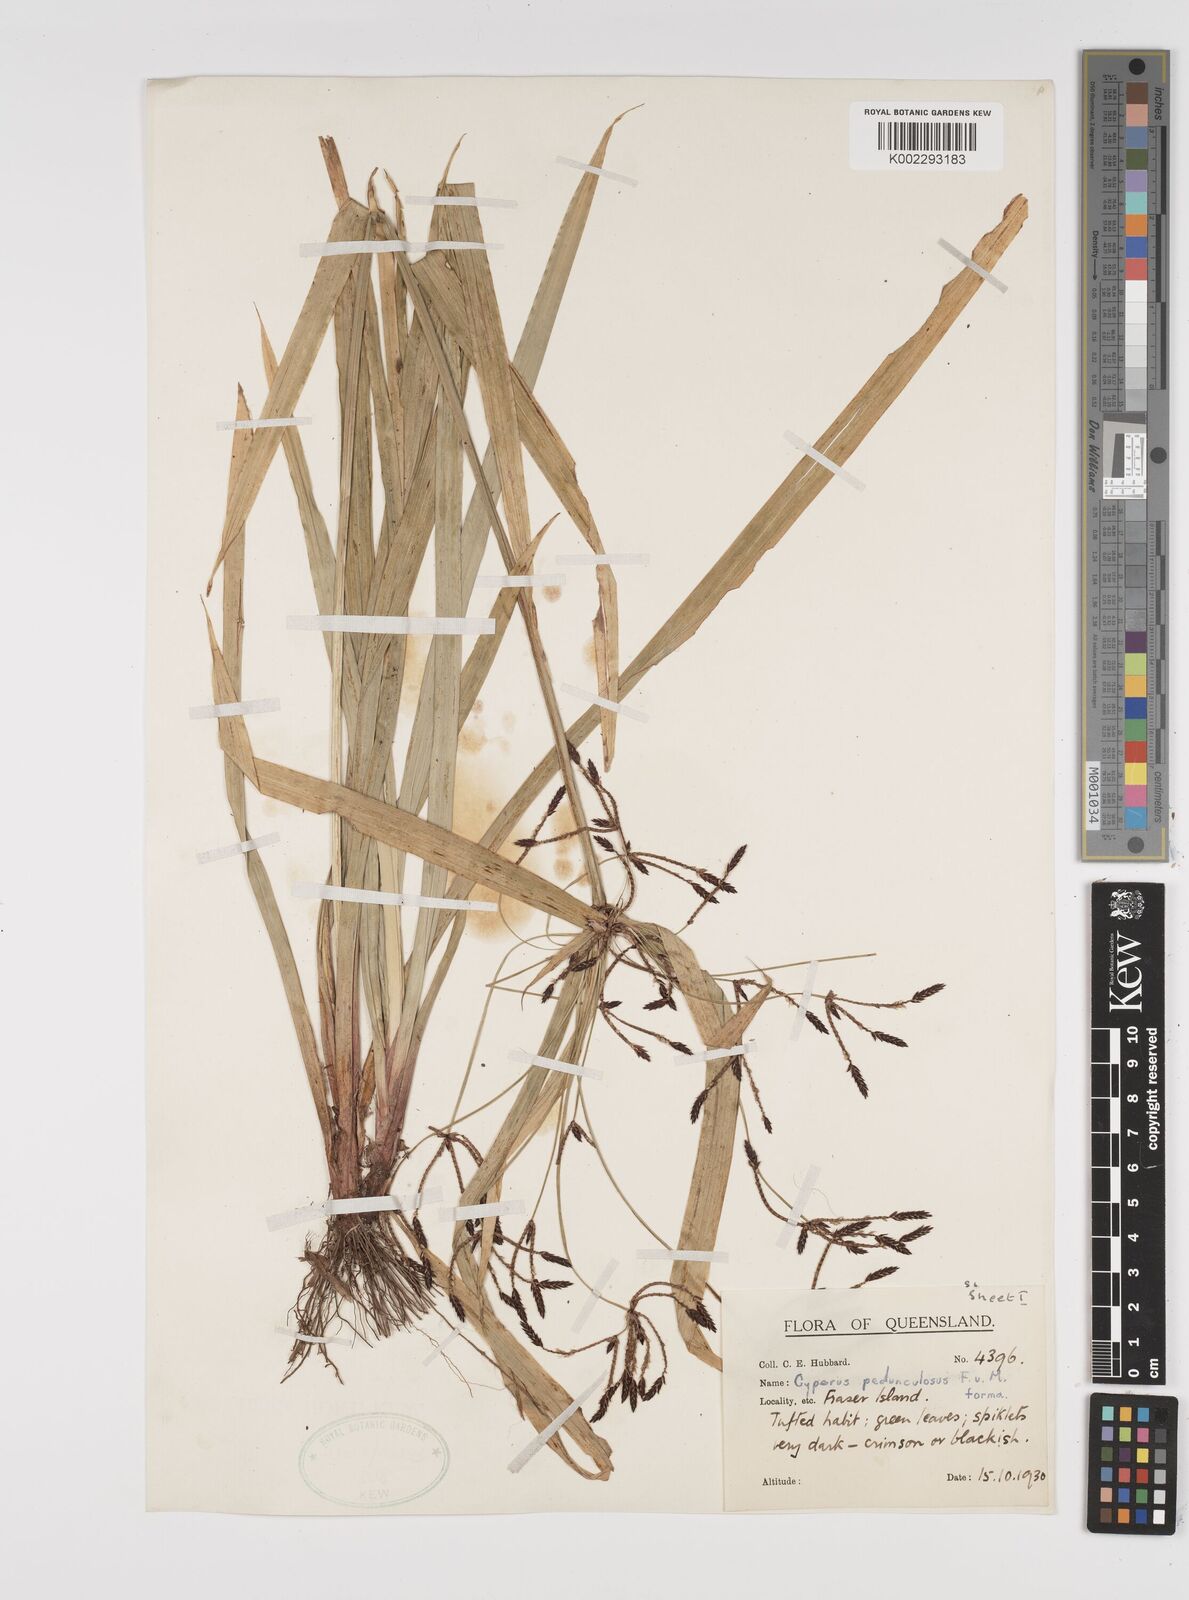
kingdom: Plantae
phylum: Tracheophyta
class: Liliopsida
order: Poales
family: Cyperaceae
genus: Cyperus
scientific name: Cyperus pedunculosus
